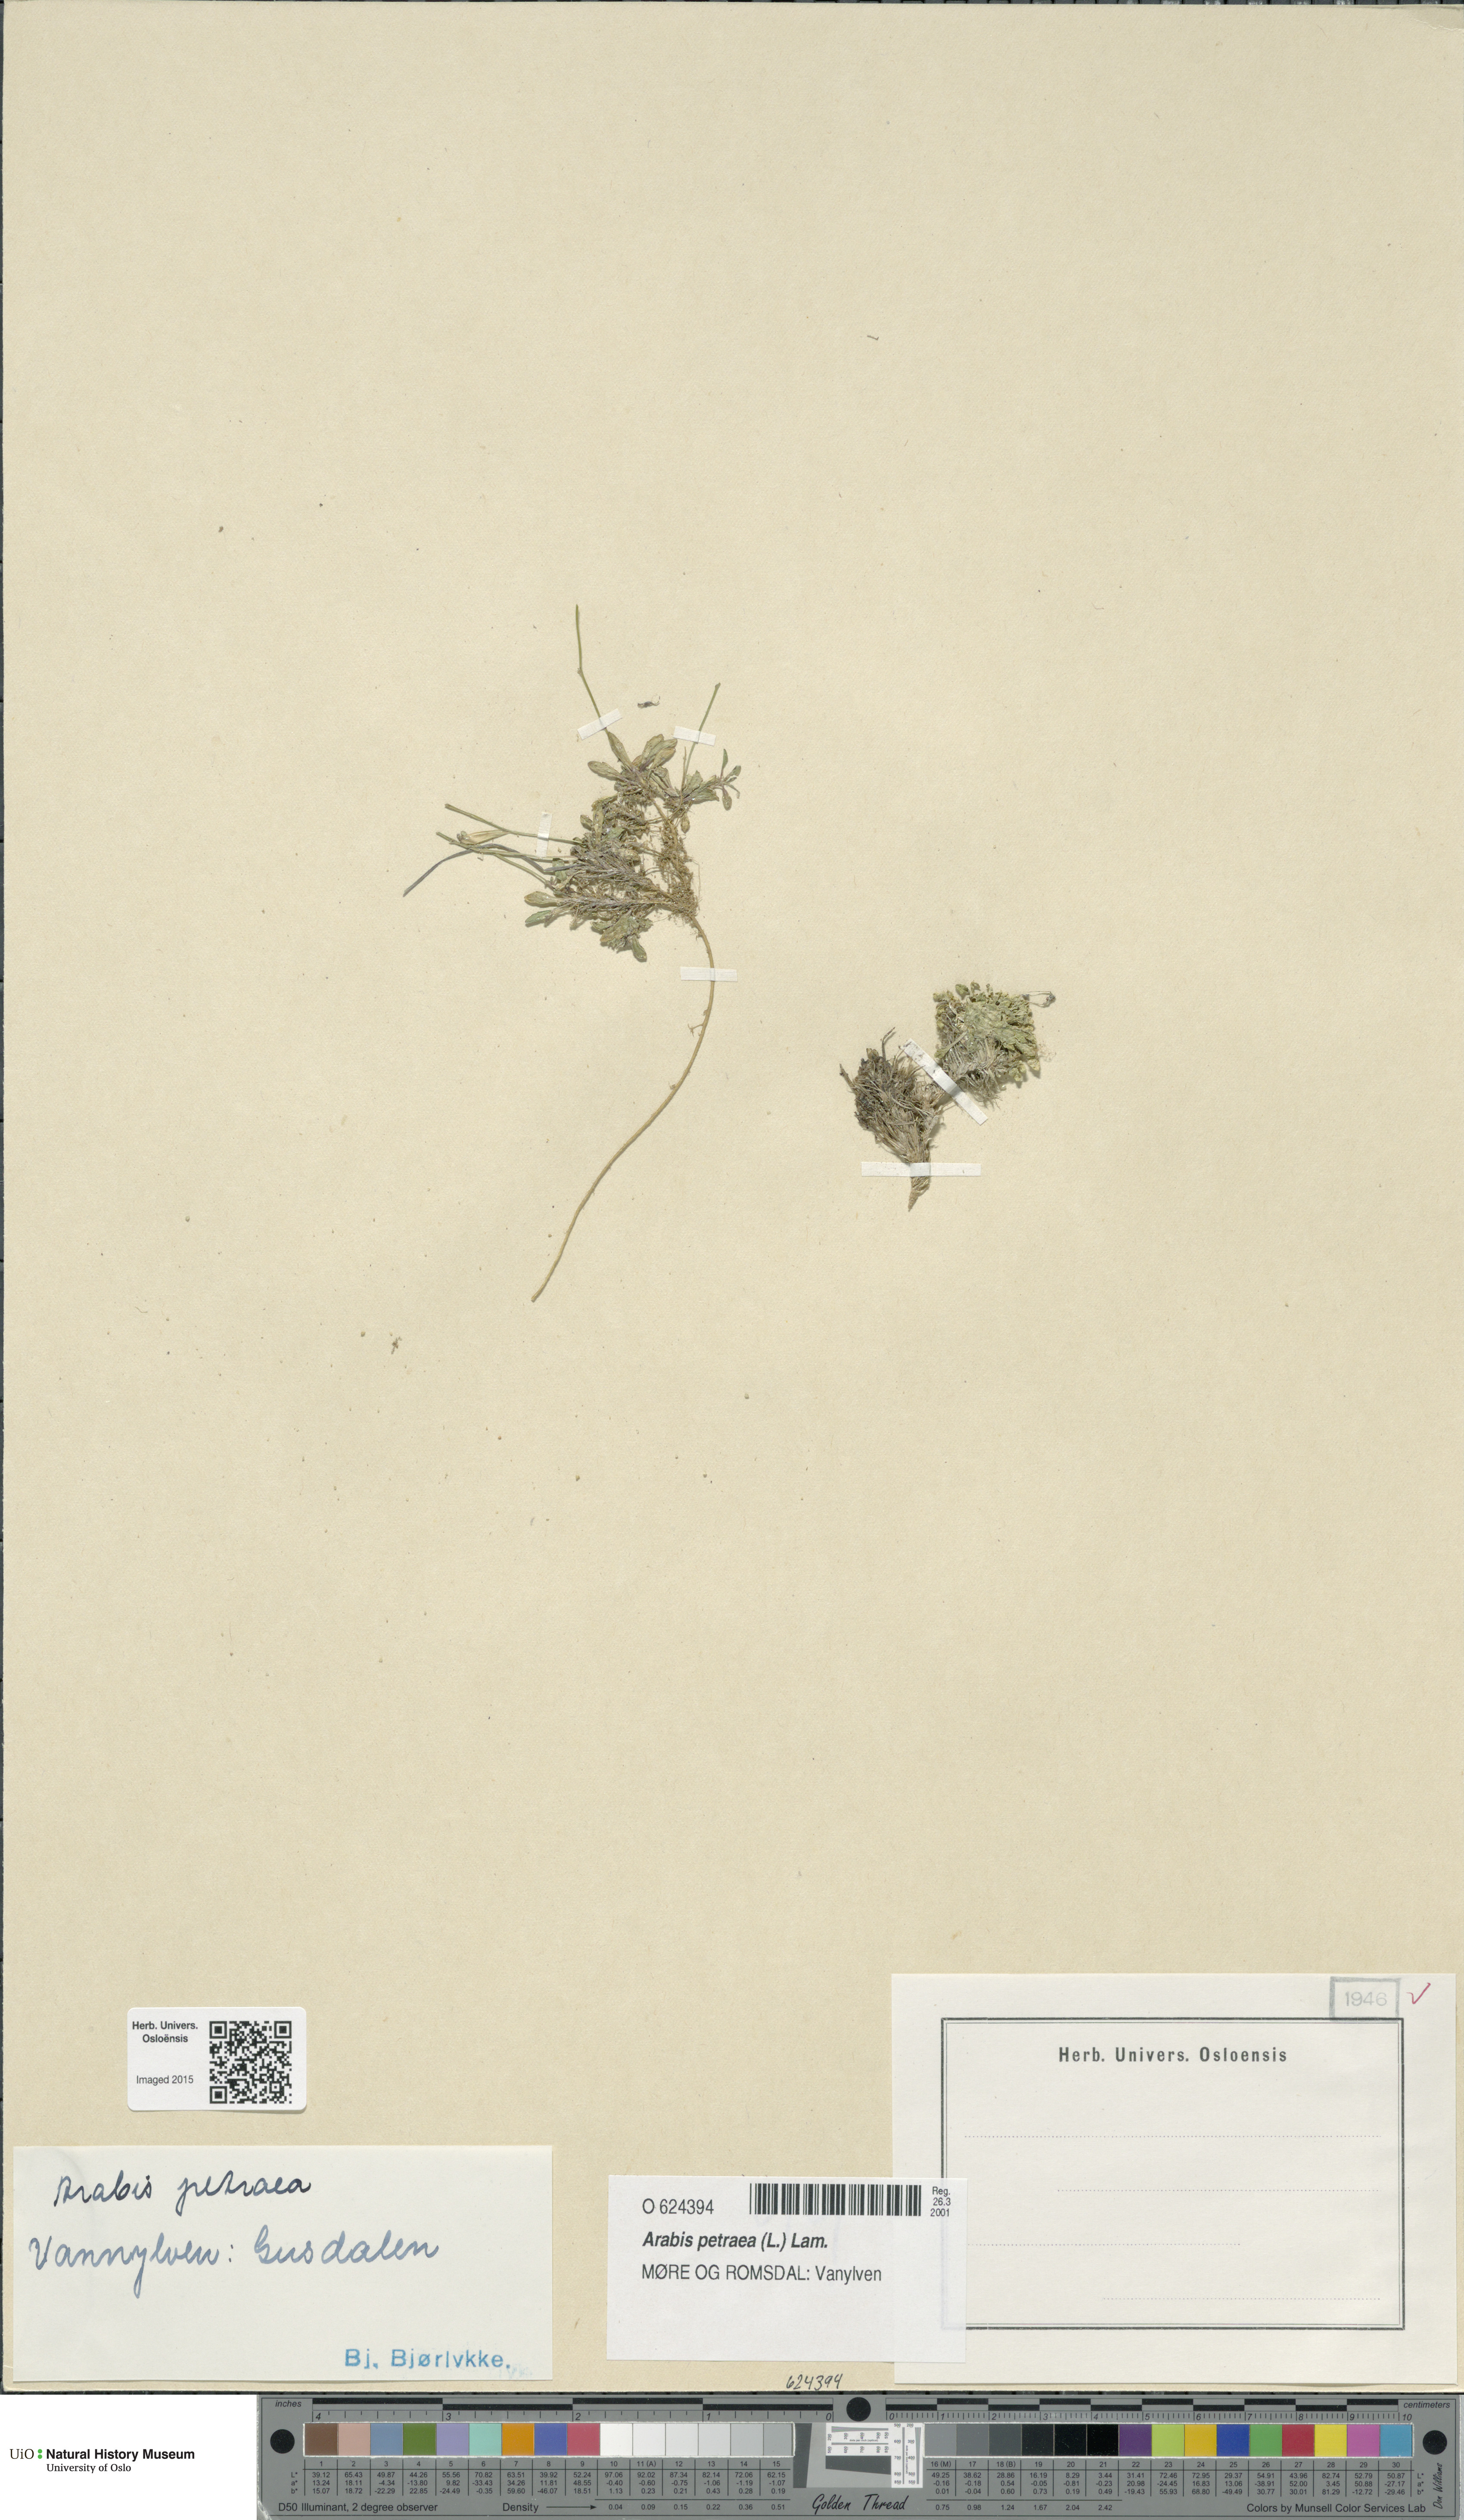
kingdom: Plantae
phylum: Tracheophyta
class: Magnoliopsida
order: Brassicales
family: Brassicaceae
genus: Arabidopsis
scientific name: Arabidopsis petraea
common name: Northern rock-cress
